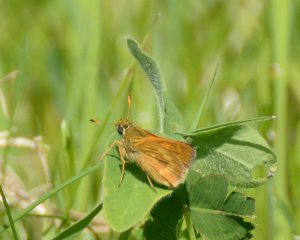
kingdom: Animalia
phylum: Arthropoda
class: Insecta
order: Lepidoptera
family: Hesperiidae
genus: Polites
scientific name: Polites
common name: Long Dash Skipper
